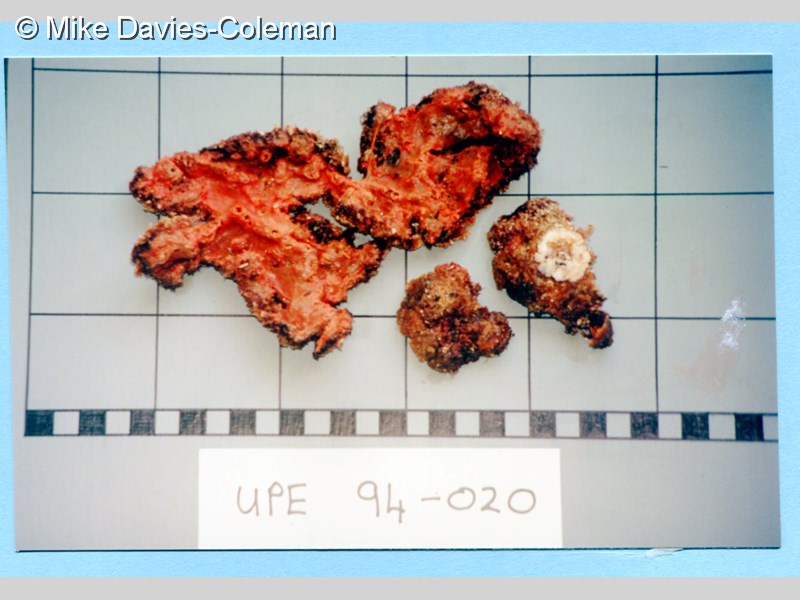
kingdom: Animalia
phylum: Porifera
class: Demospongiae
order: Poecilosclerida
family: Microcionidae
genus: Clathria
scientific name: Clathria
